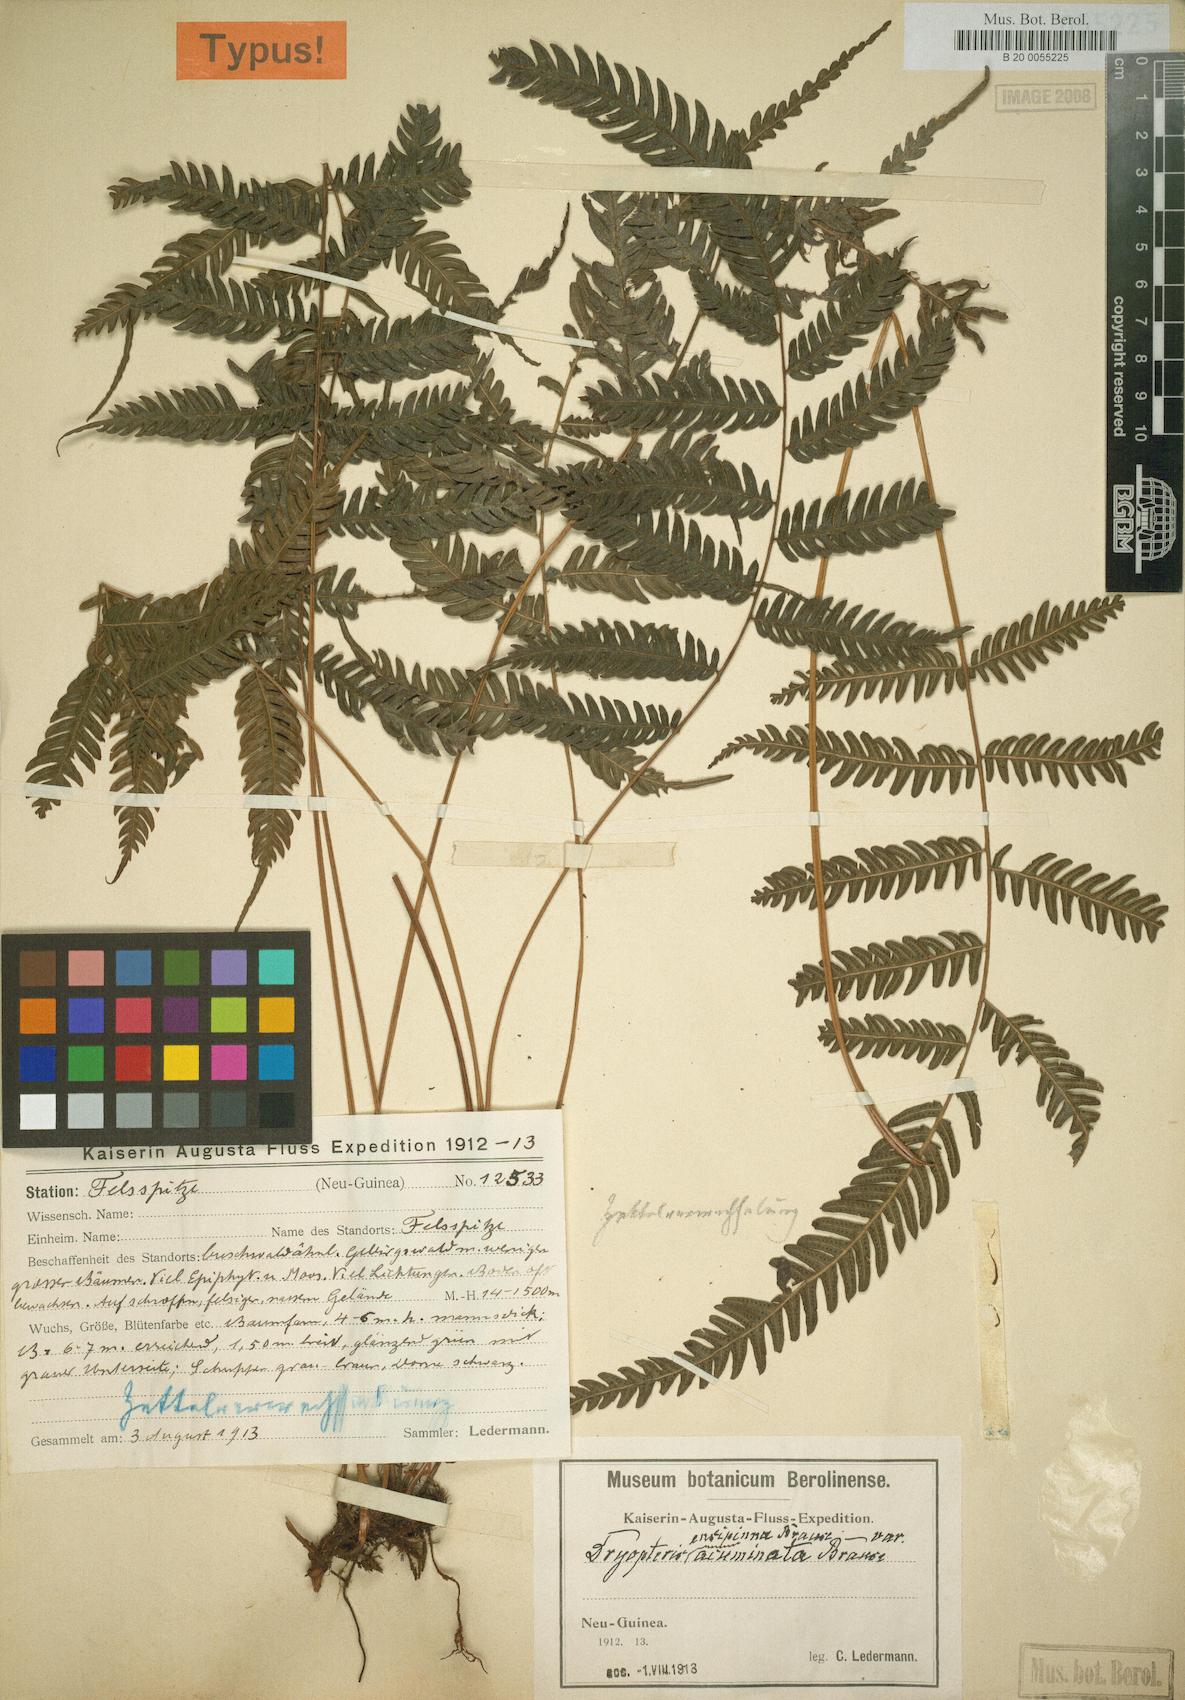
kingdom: Plantae
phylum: Tracheophyta
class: Polypodiopsida
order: Polypodiales
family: Thelypteridaceae
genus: Plesioneuron
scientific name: Plesioneuron savaiense
